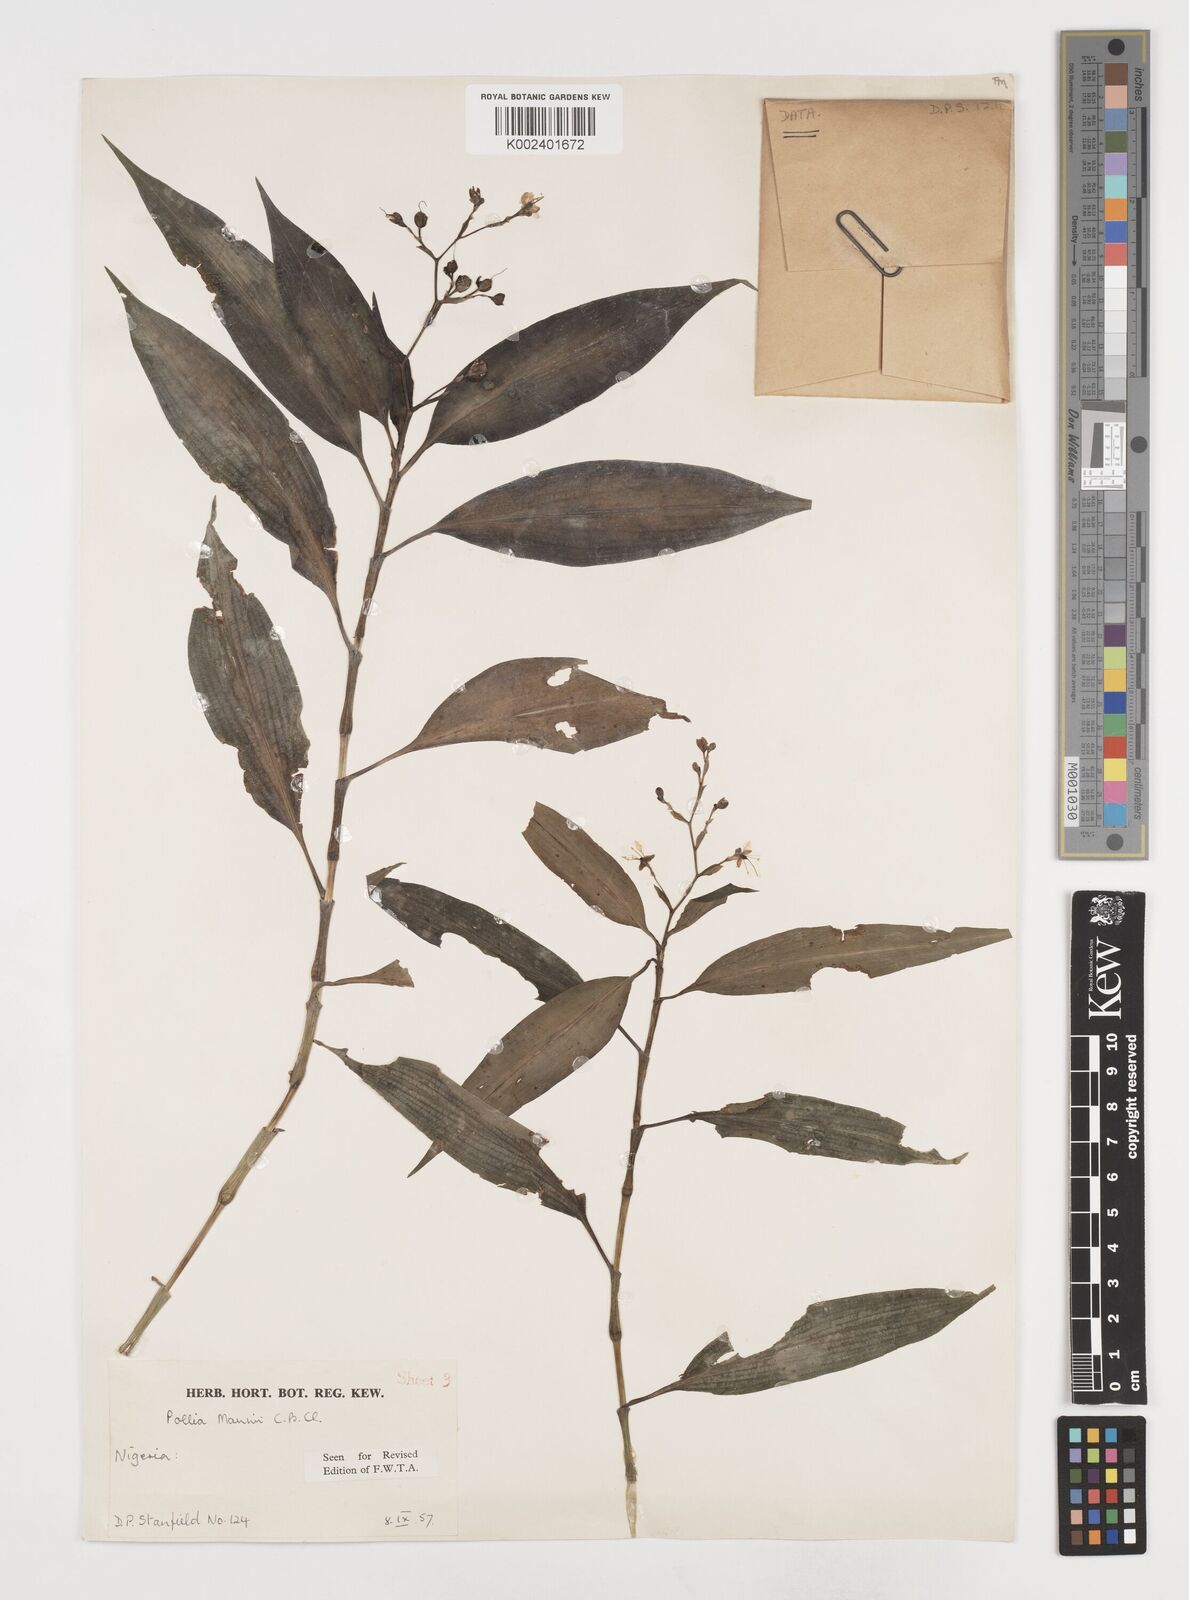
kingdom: Plantae
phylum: Tracheophyta
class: Liliopsida
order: Commelinales
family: Commelinaceae
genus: Pollia
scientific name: Pollia mannii
